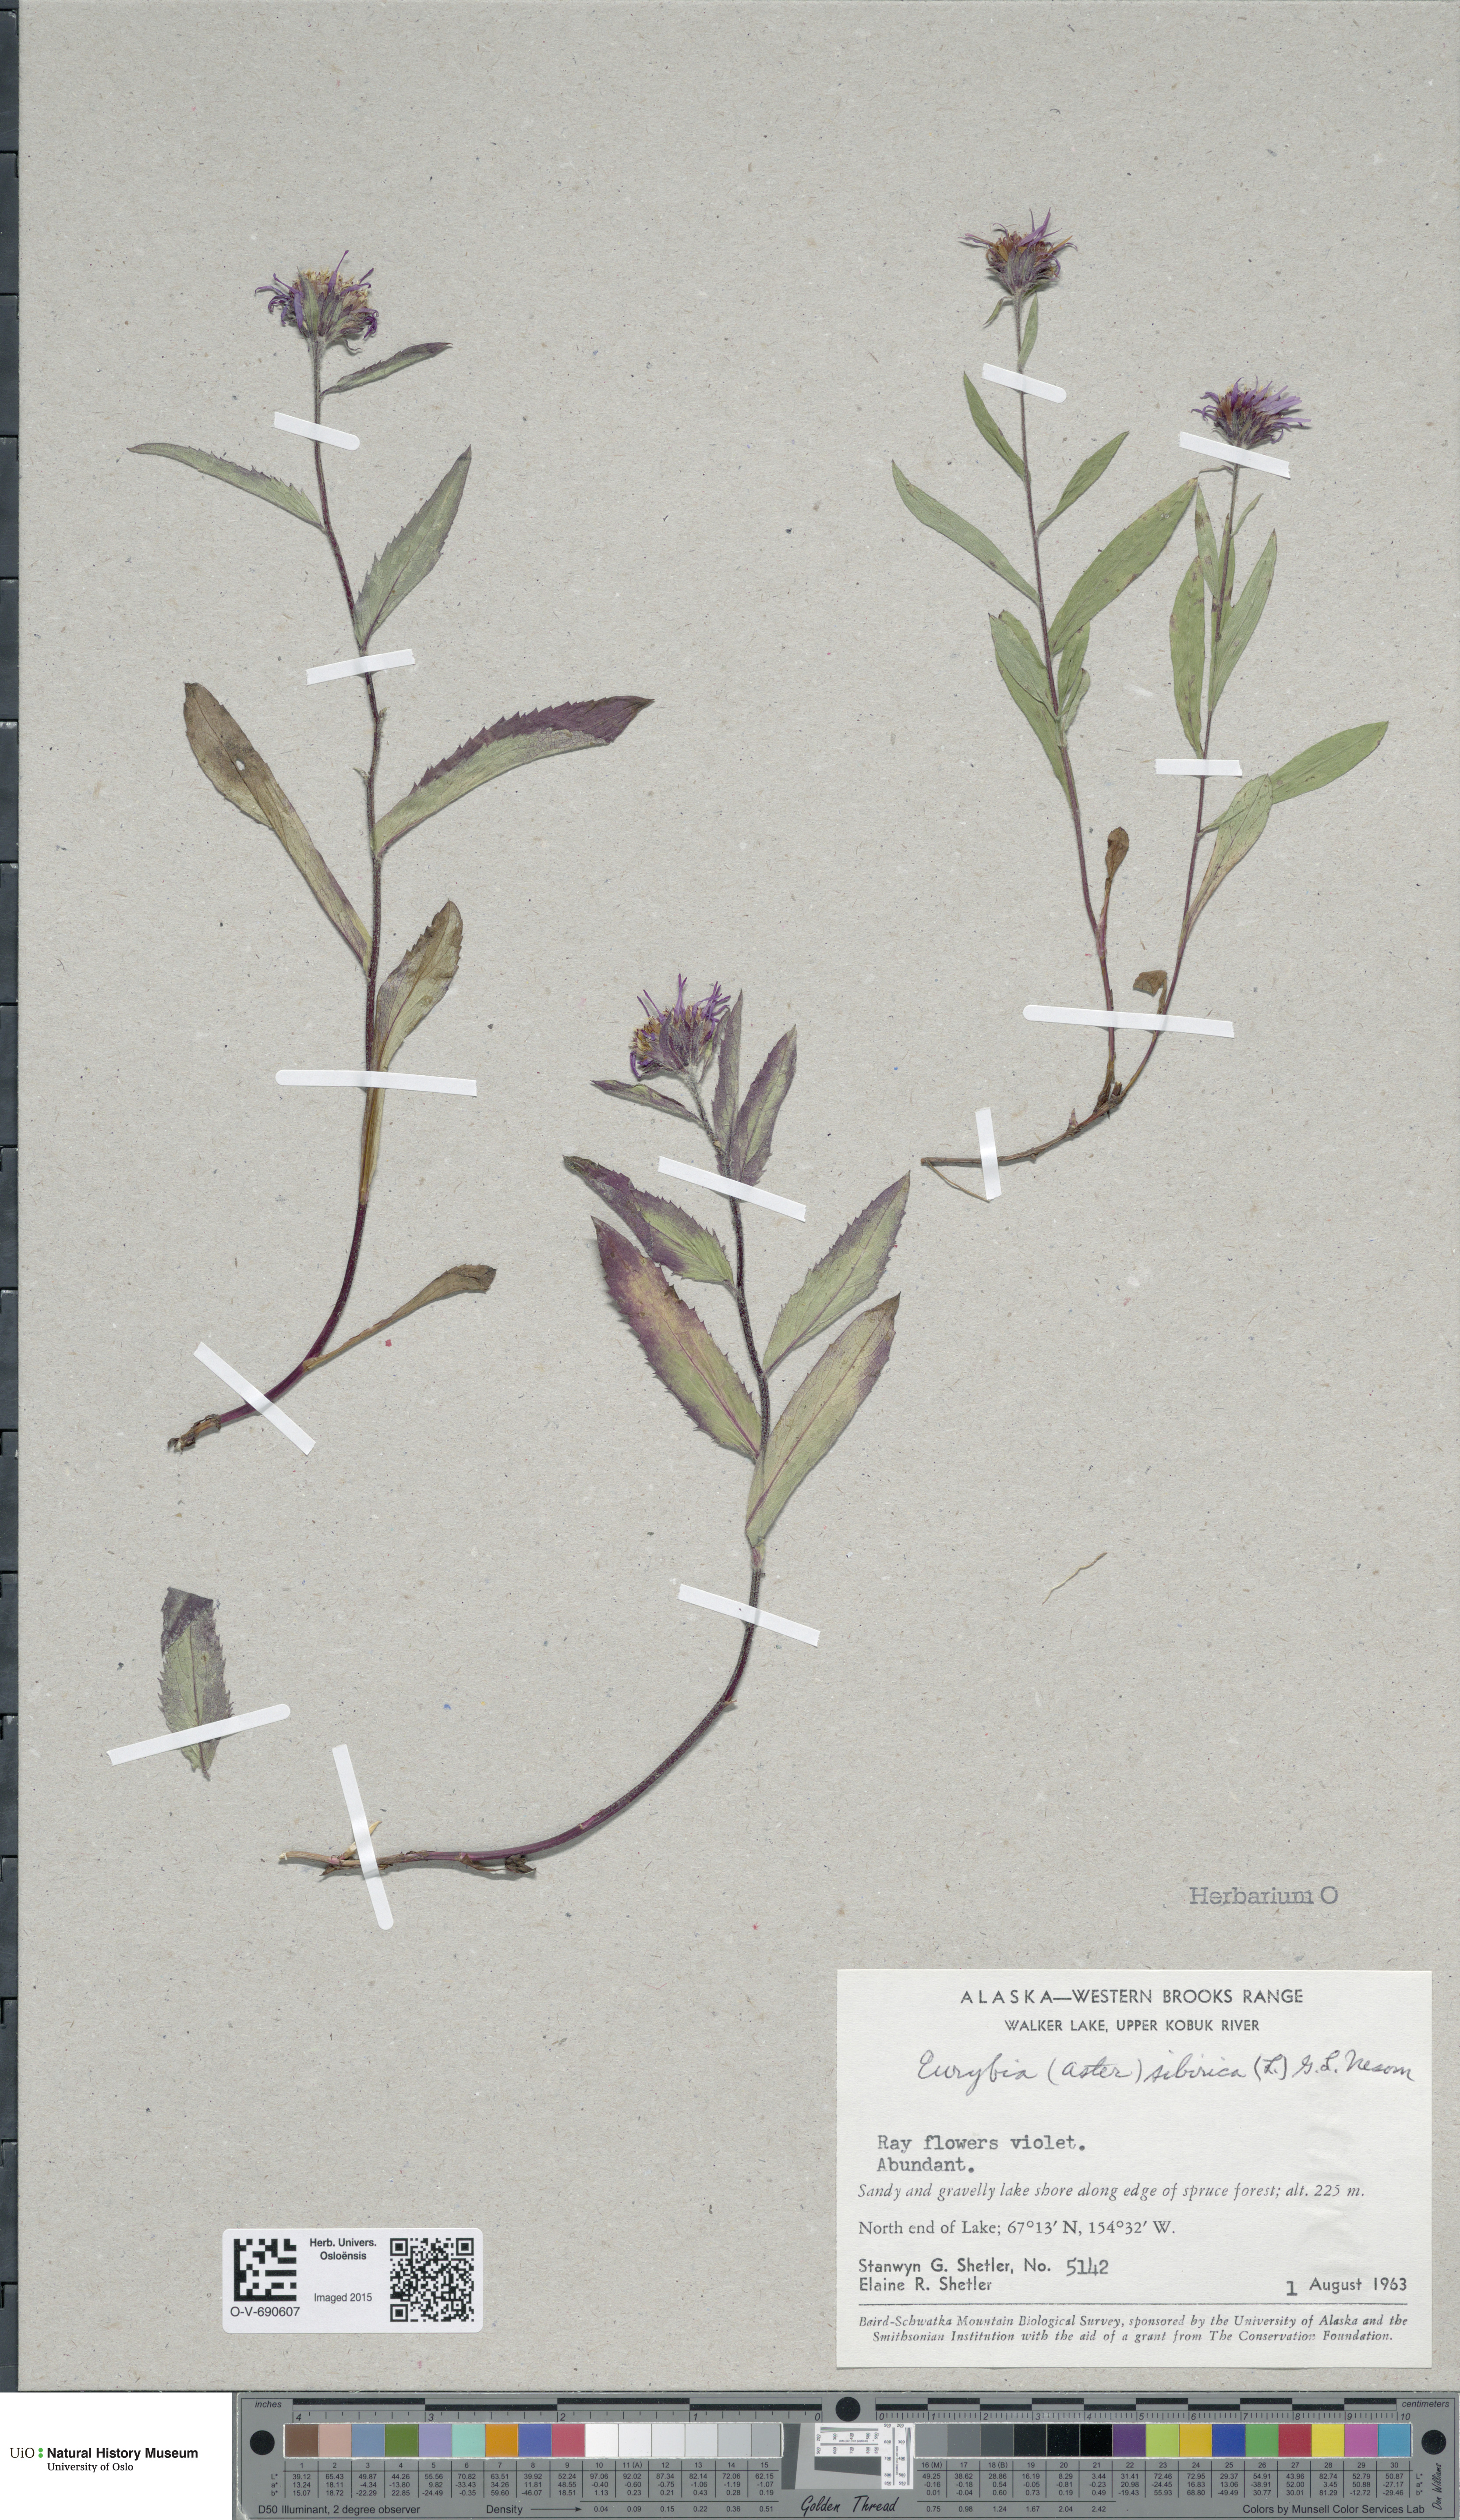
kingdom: Plantae
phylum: Tracheophyta
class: Magnoliopsida
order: Asterales
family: Asteraceae
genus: Eurybia
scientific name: Eurybia sibirica
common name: Arctic aster
